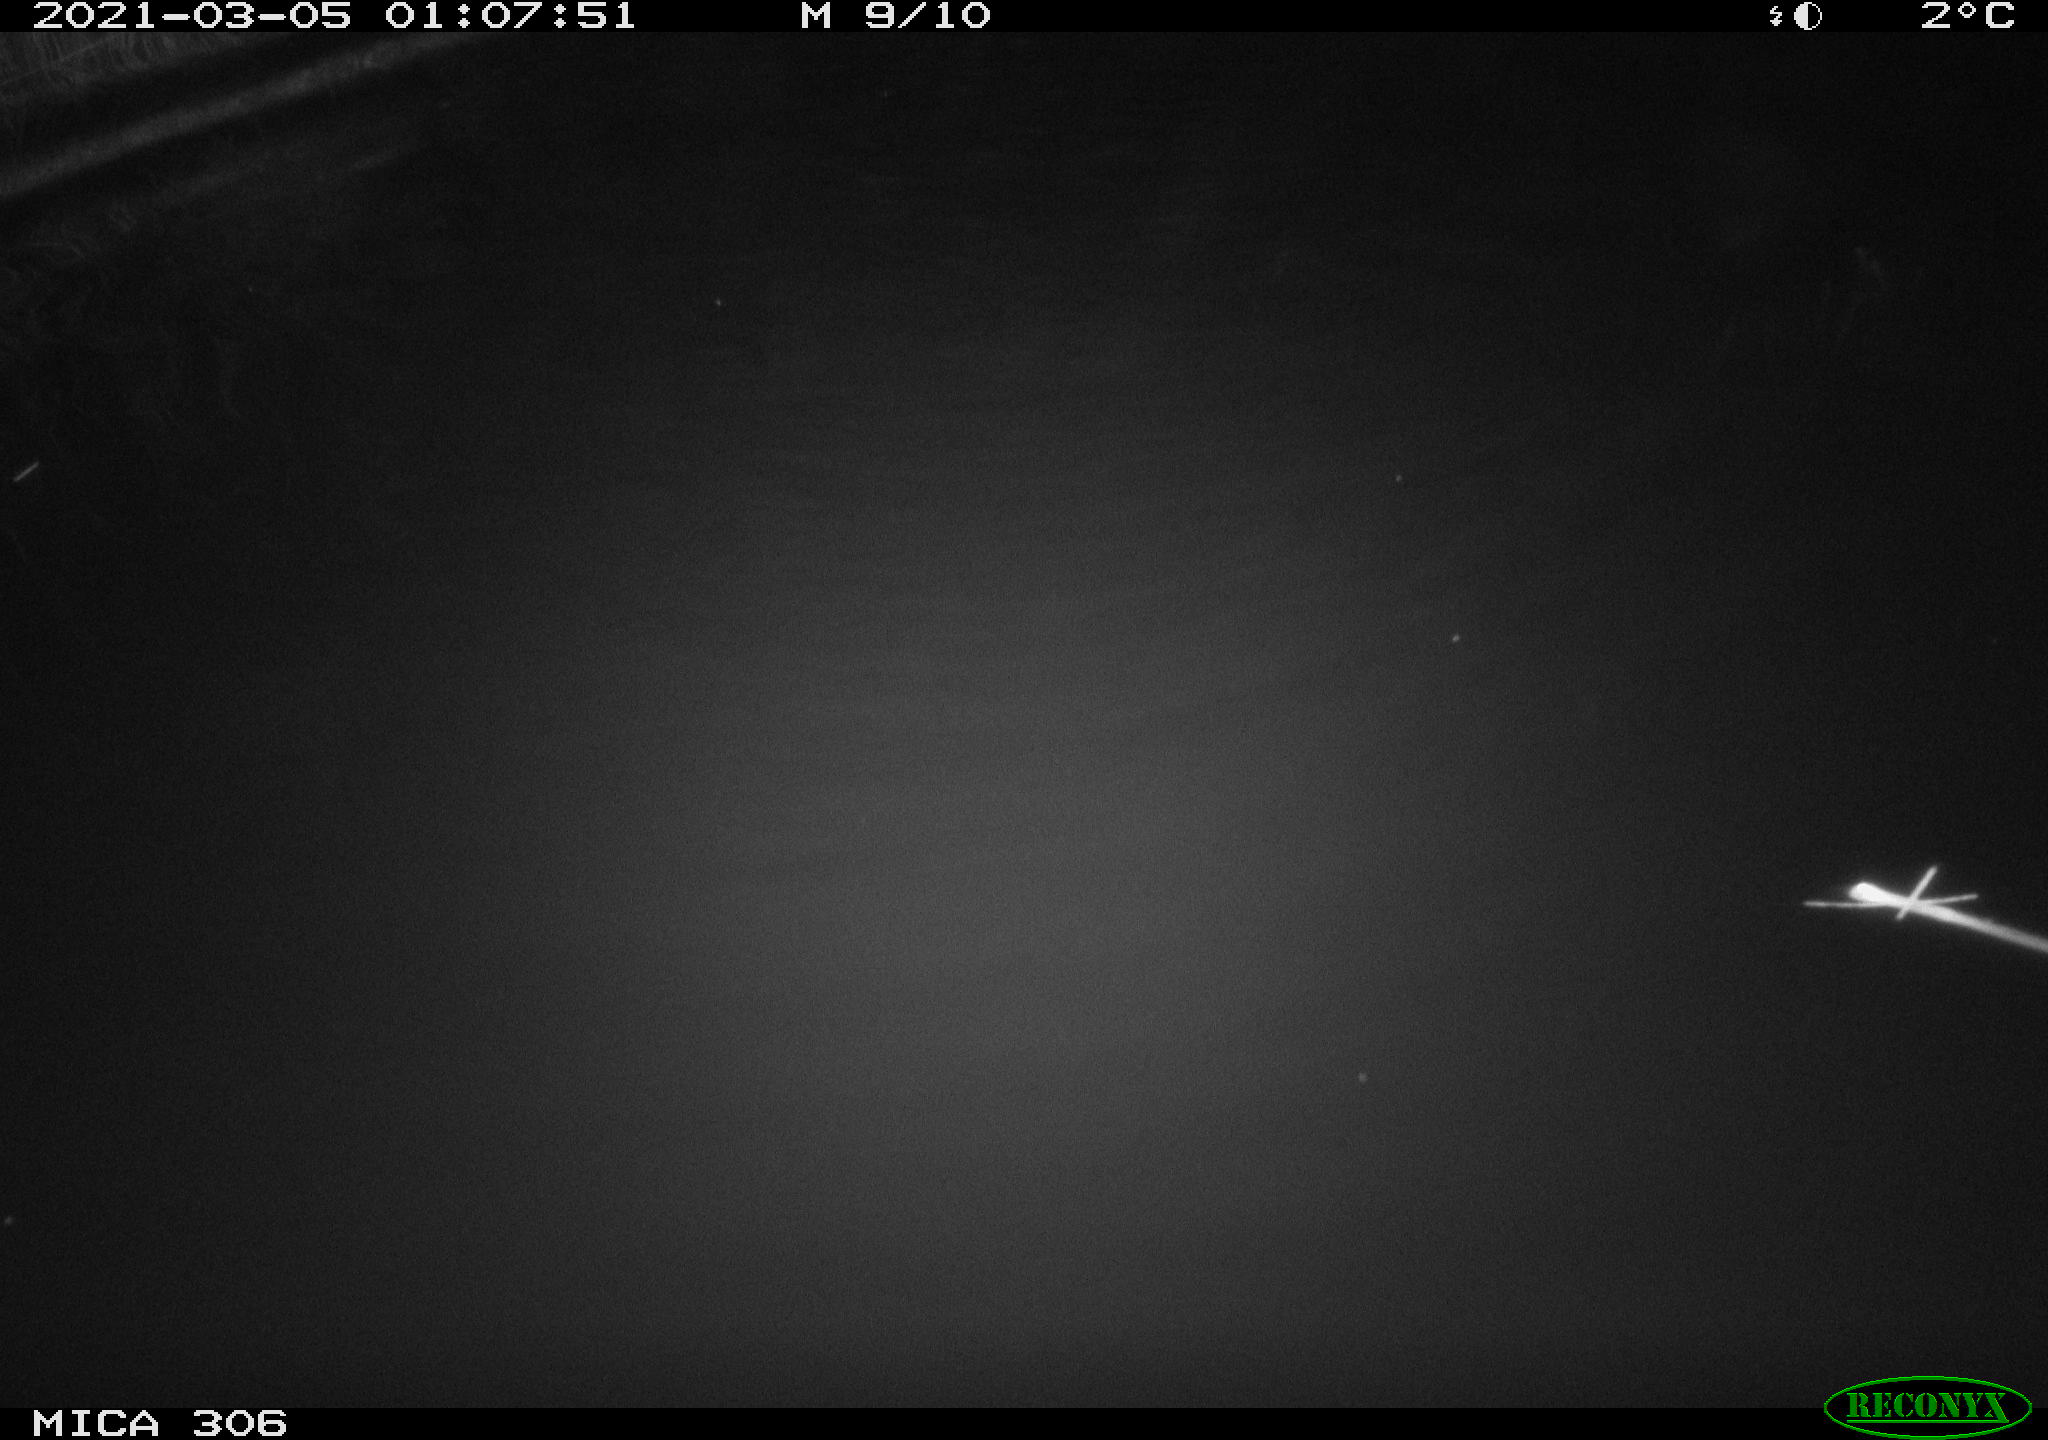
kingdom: Animalia
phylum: Chordata
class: Aves
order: Gruiformes
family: Rallidae
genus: Gallinula
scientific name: Gallinula chloropus
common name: Common moorhen
